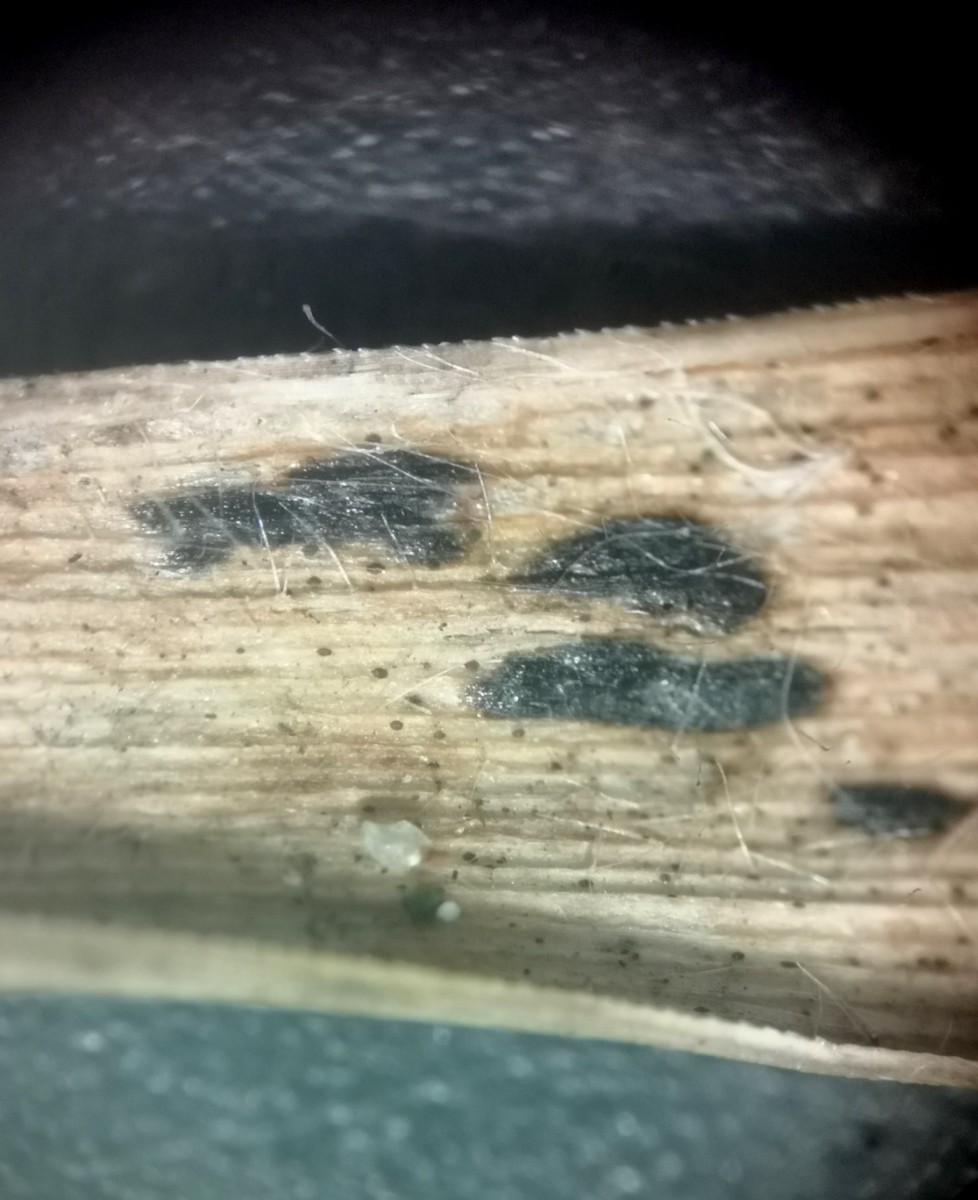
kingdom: Fungi
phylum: Ascomycota
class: Sordariomycetes
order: Phyllachorales
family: Phyllachoraceae
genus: Phyllachora
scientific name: Phyllachora graminis
